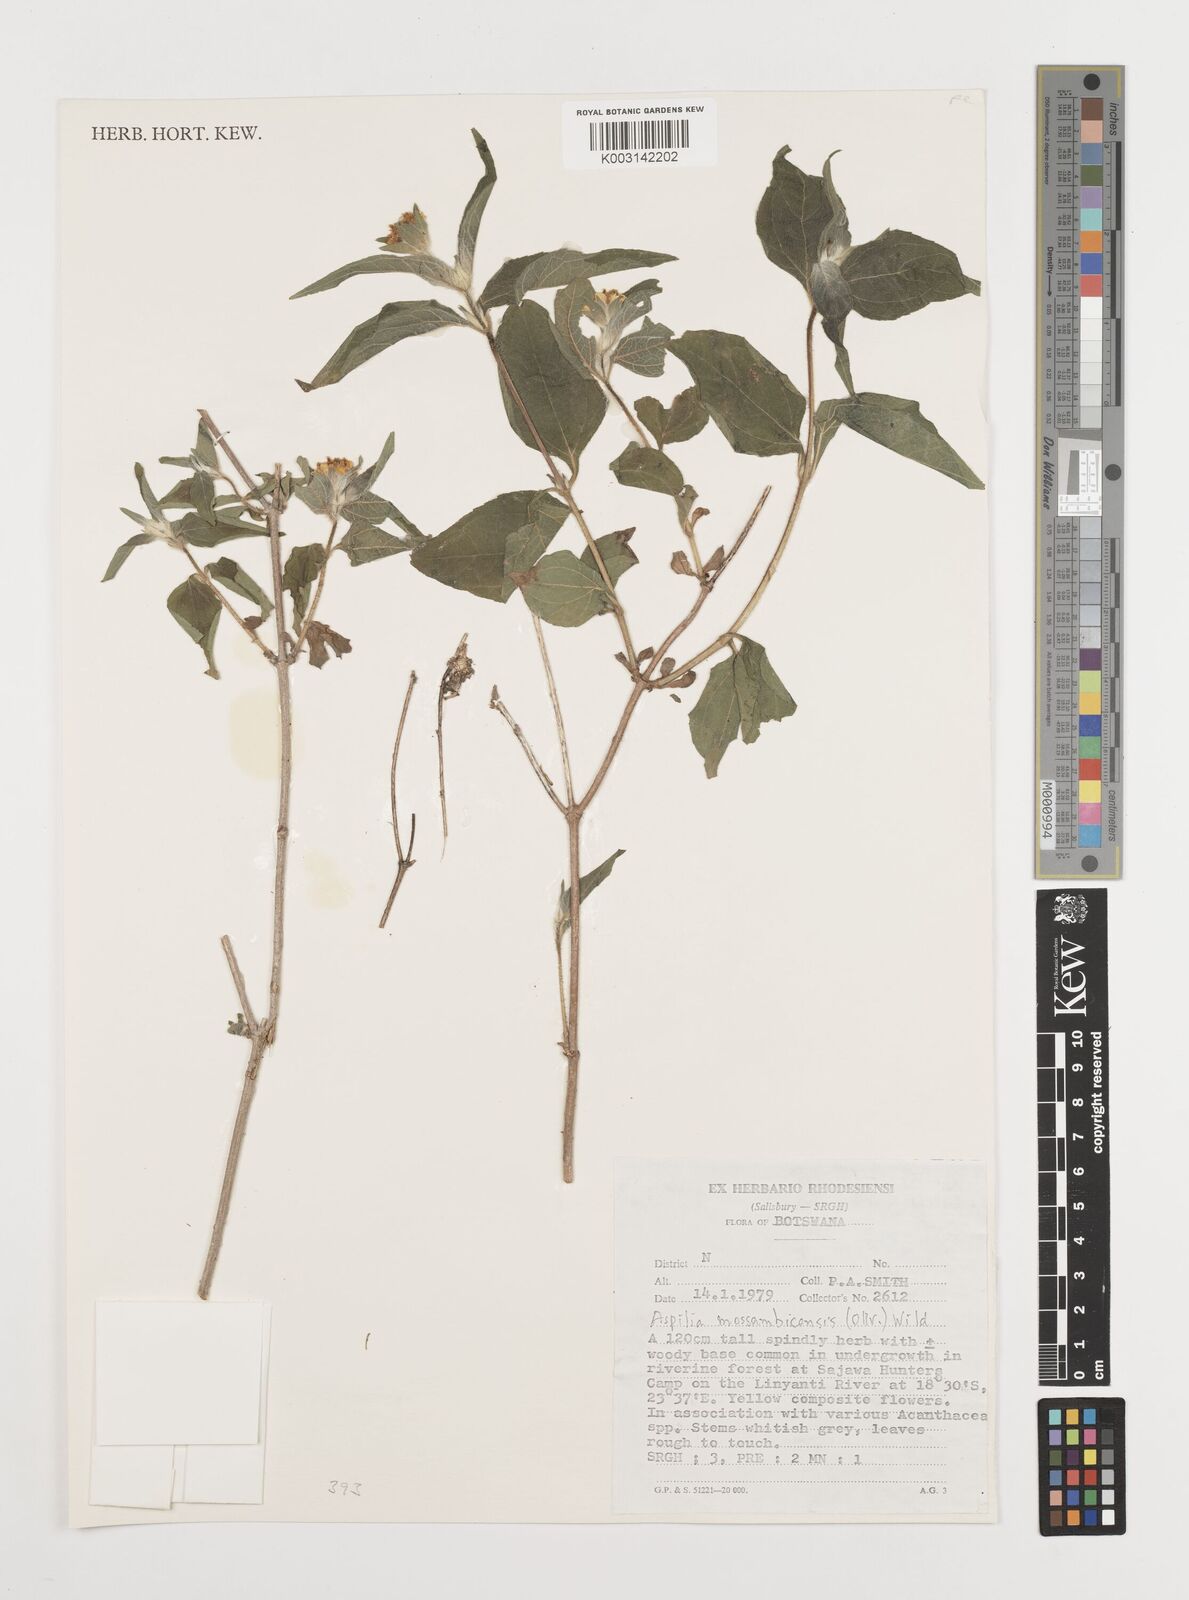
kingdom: Plantae
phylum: Tracheophyta
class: Magnoliopsida
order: Asterales
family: Asteraceae
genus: Aspilia
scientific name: Aspilia mossambicensis
